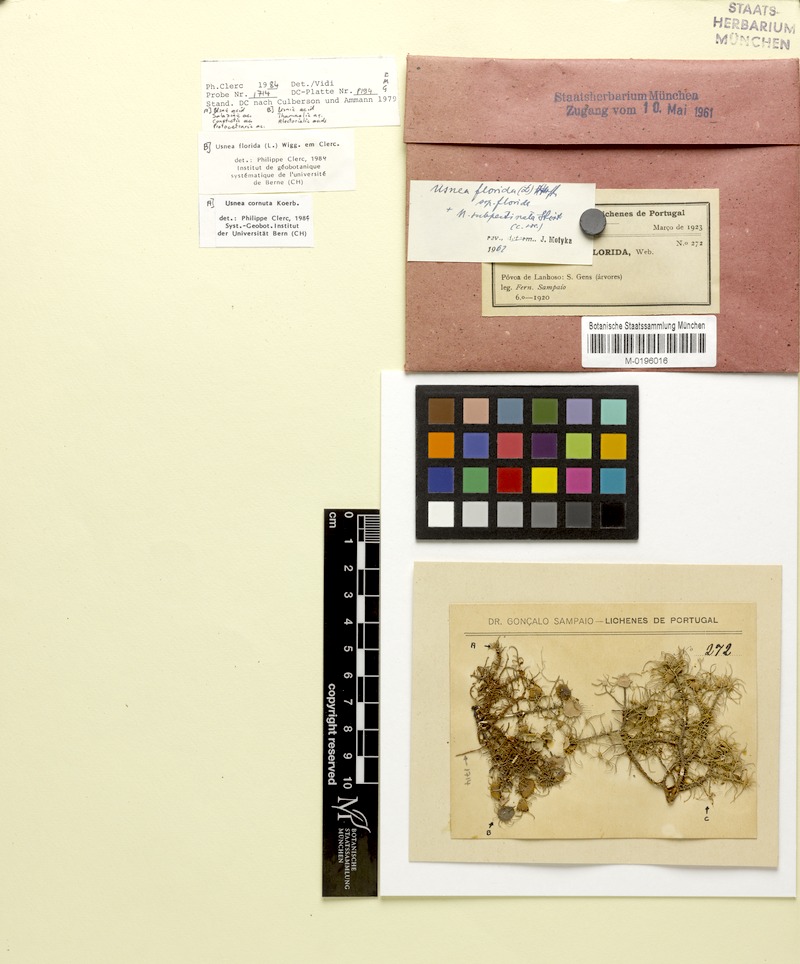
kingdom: Fungi
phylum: Ascomycota
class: Lecanoromycetes
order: Lecanorales
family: Parmeliaceae
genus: Usnea
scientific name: Usnea cornuta
